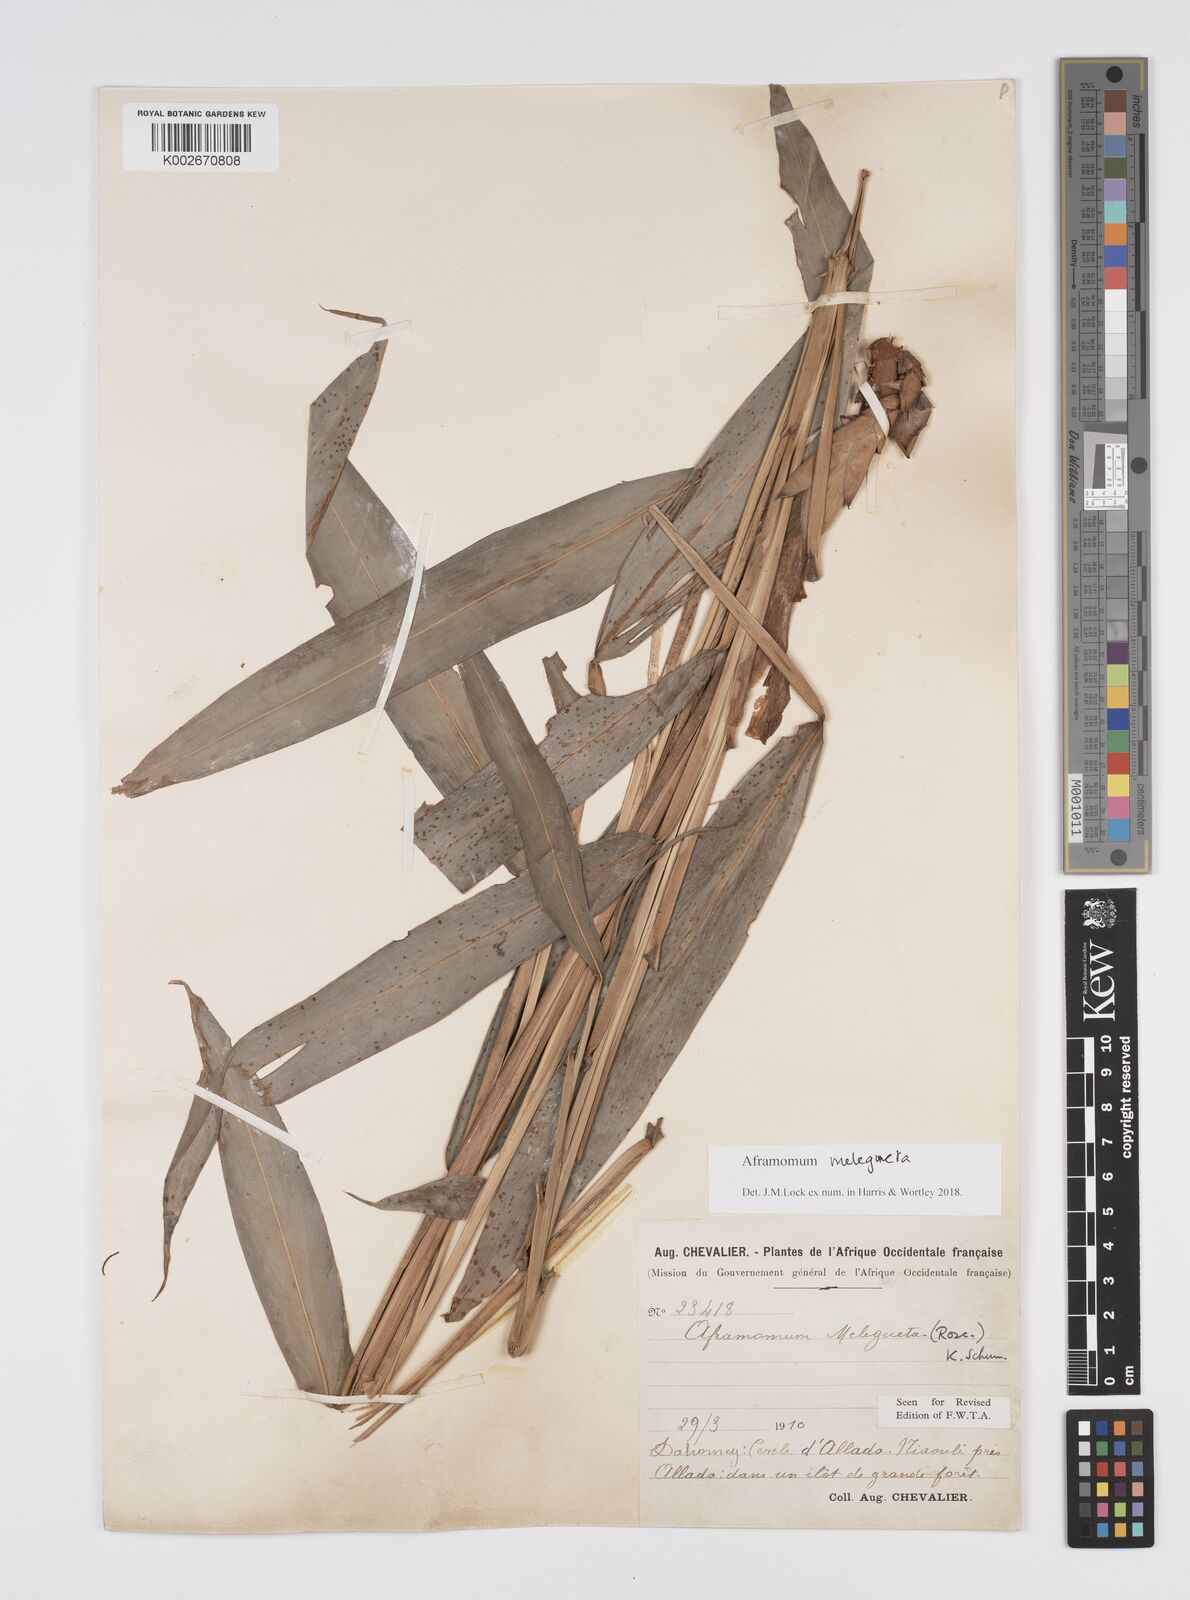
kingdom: Plantae
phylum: Tracheophyta
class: Liliopsida
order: Zingiberales
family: Zingiberaceae
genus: Aframomum
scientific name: Aframomum melegueta
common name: Grains of paradise
